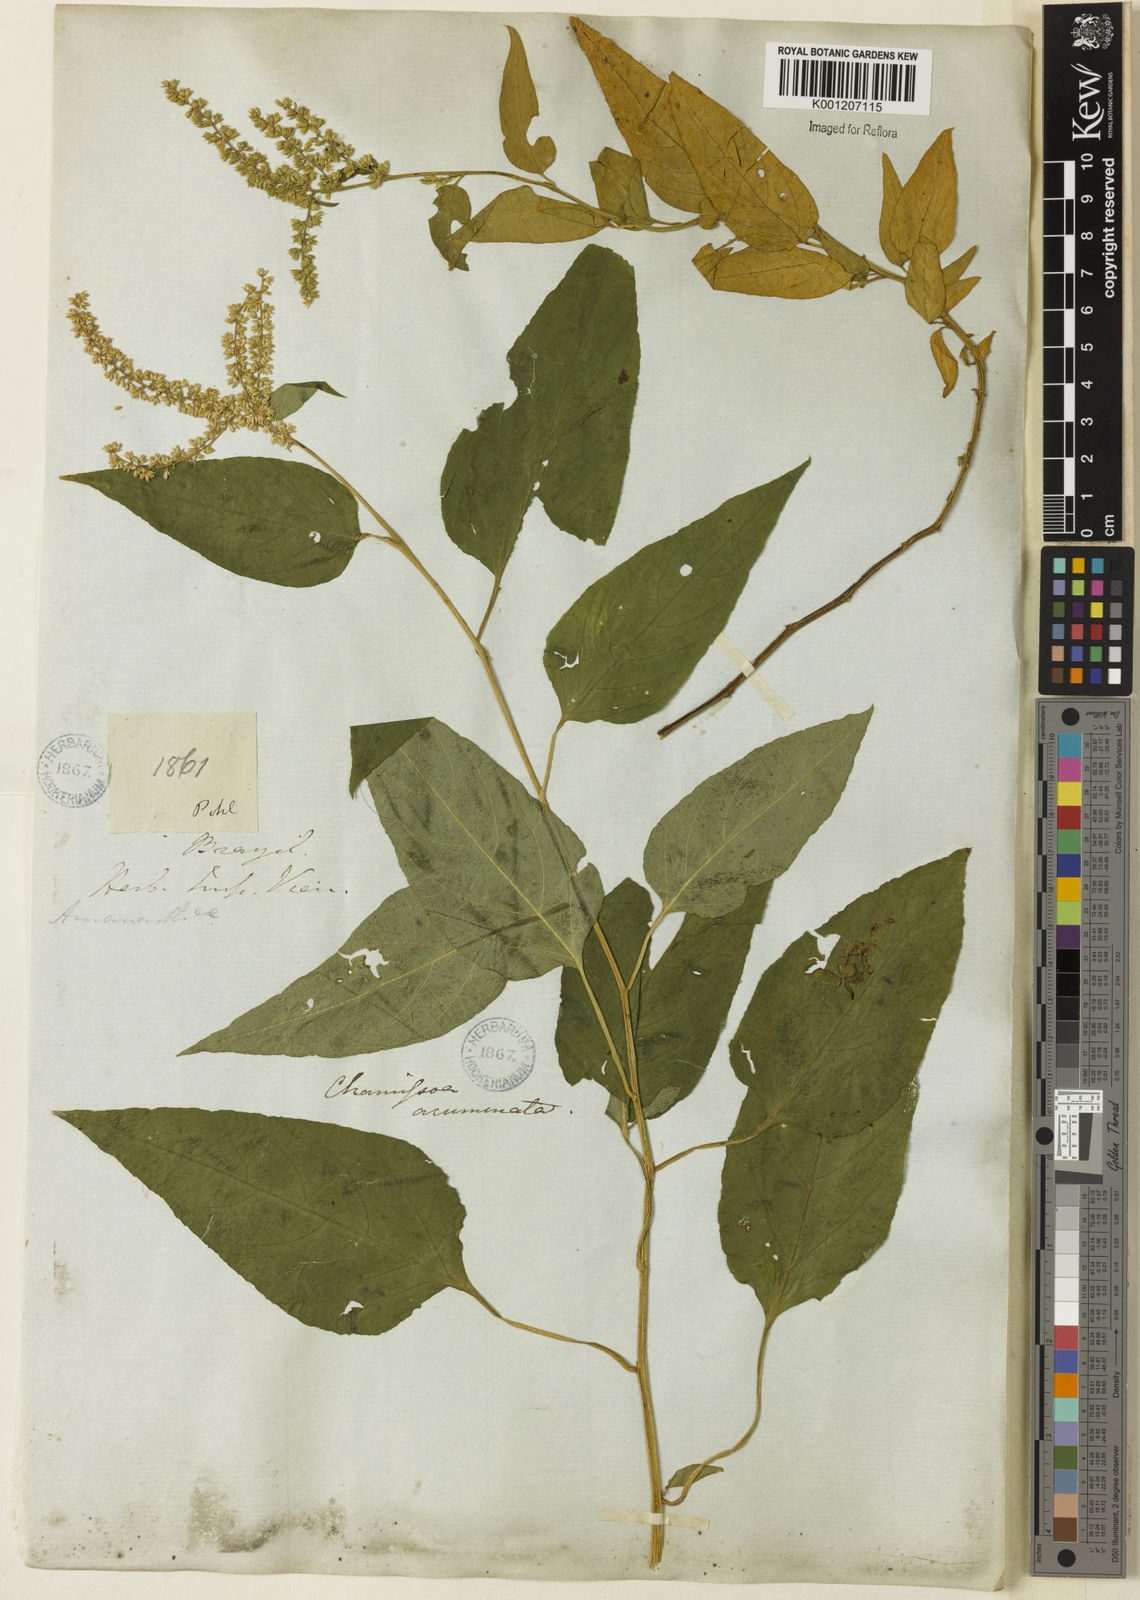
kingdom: Plantae
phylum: Tracheophyta
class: Magnoliopsida
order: Caryophyllales
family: Amaranthaceae
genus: Chamissoa
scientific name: Chamissoa maximiliani
